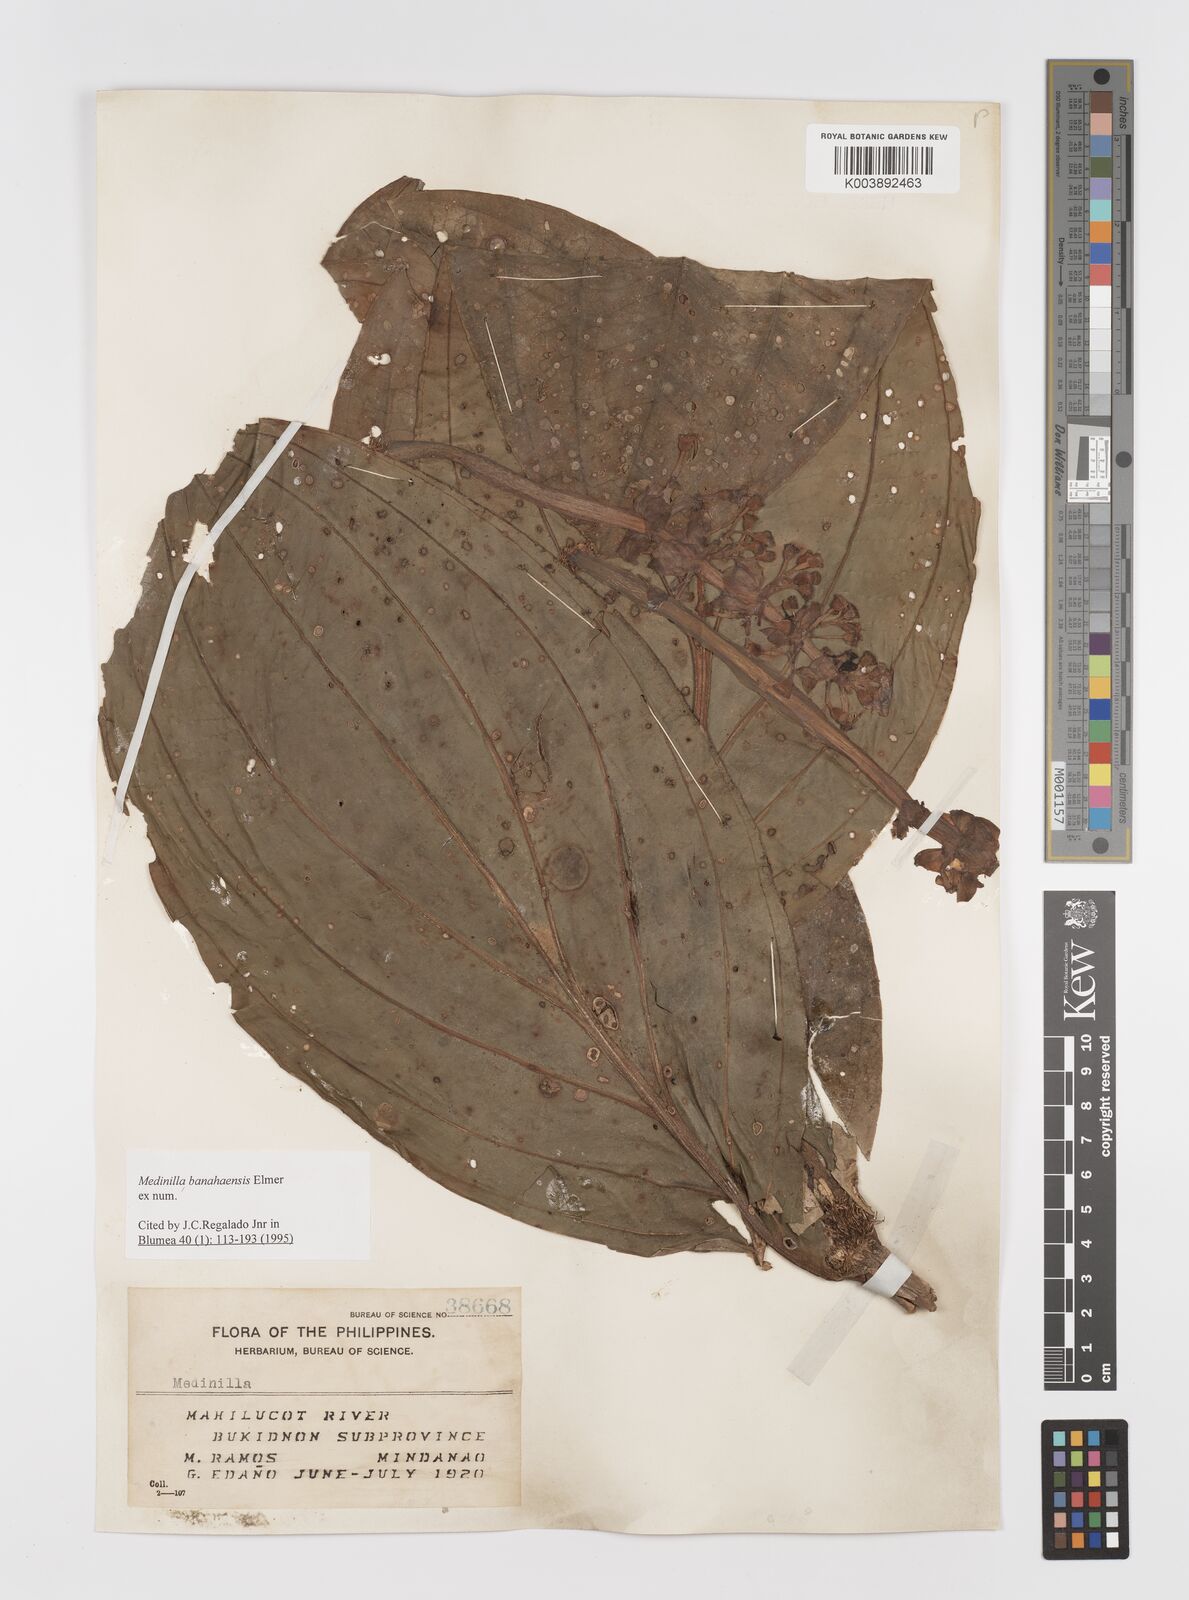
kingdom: Plantae
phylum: Tracheophyta
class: Magnoliopsida
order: Myrtales
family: Melastomataceae
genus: Medinilla
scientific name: Medinilla banahaensis
